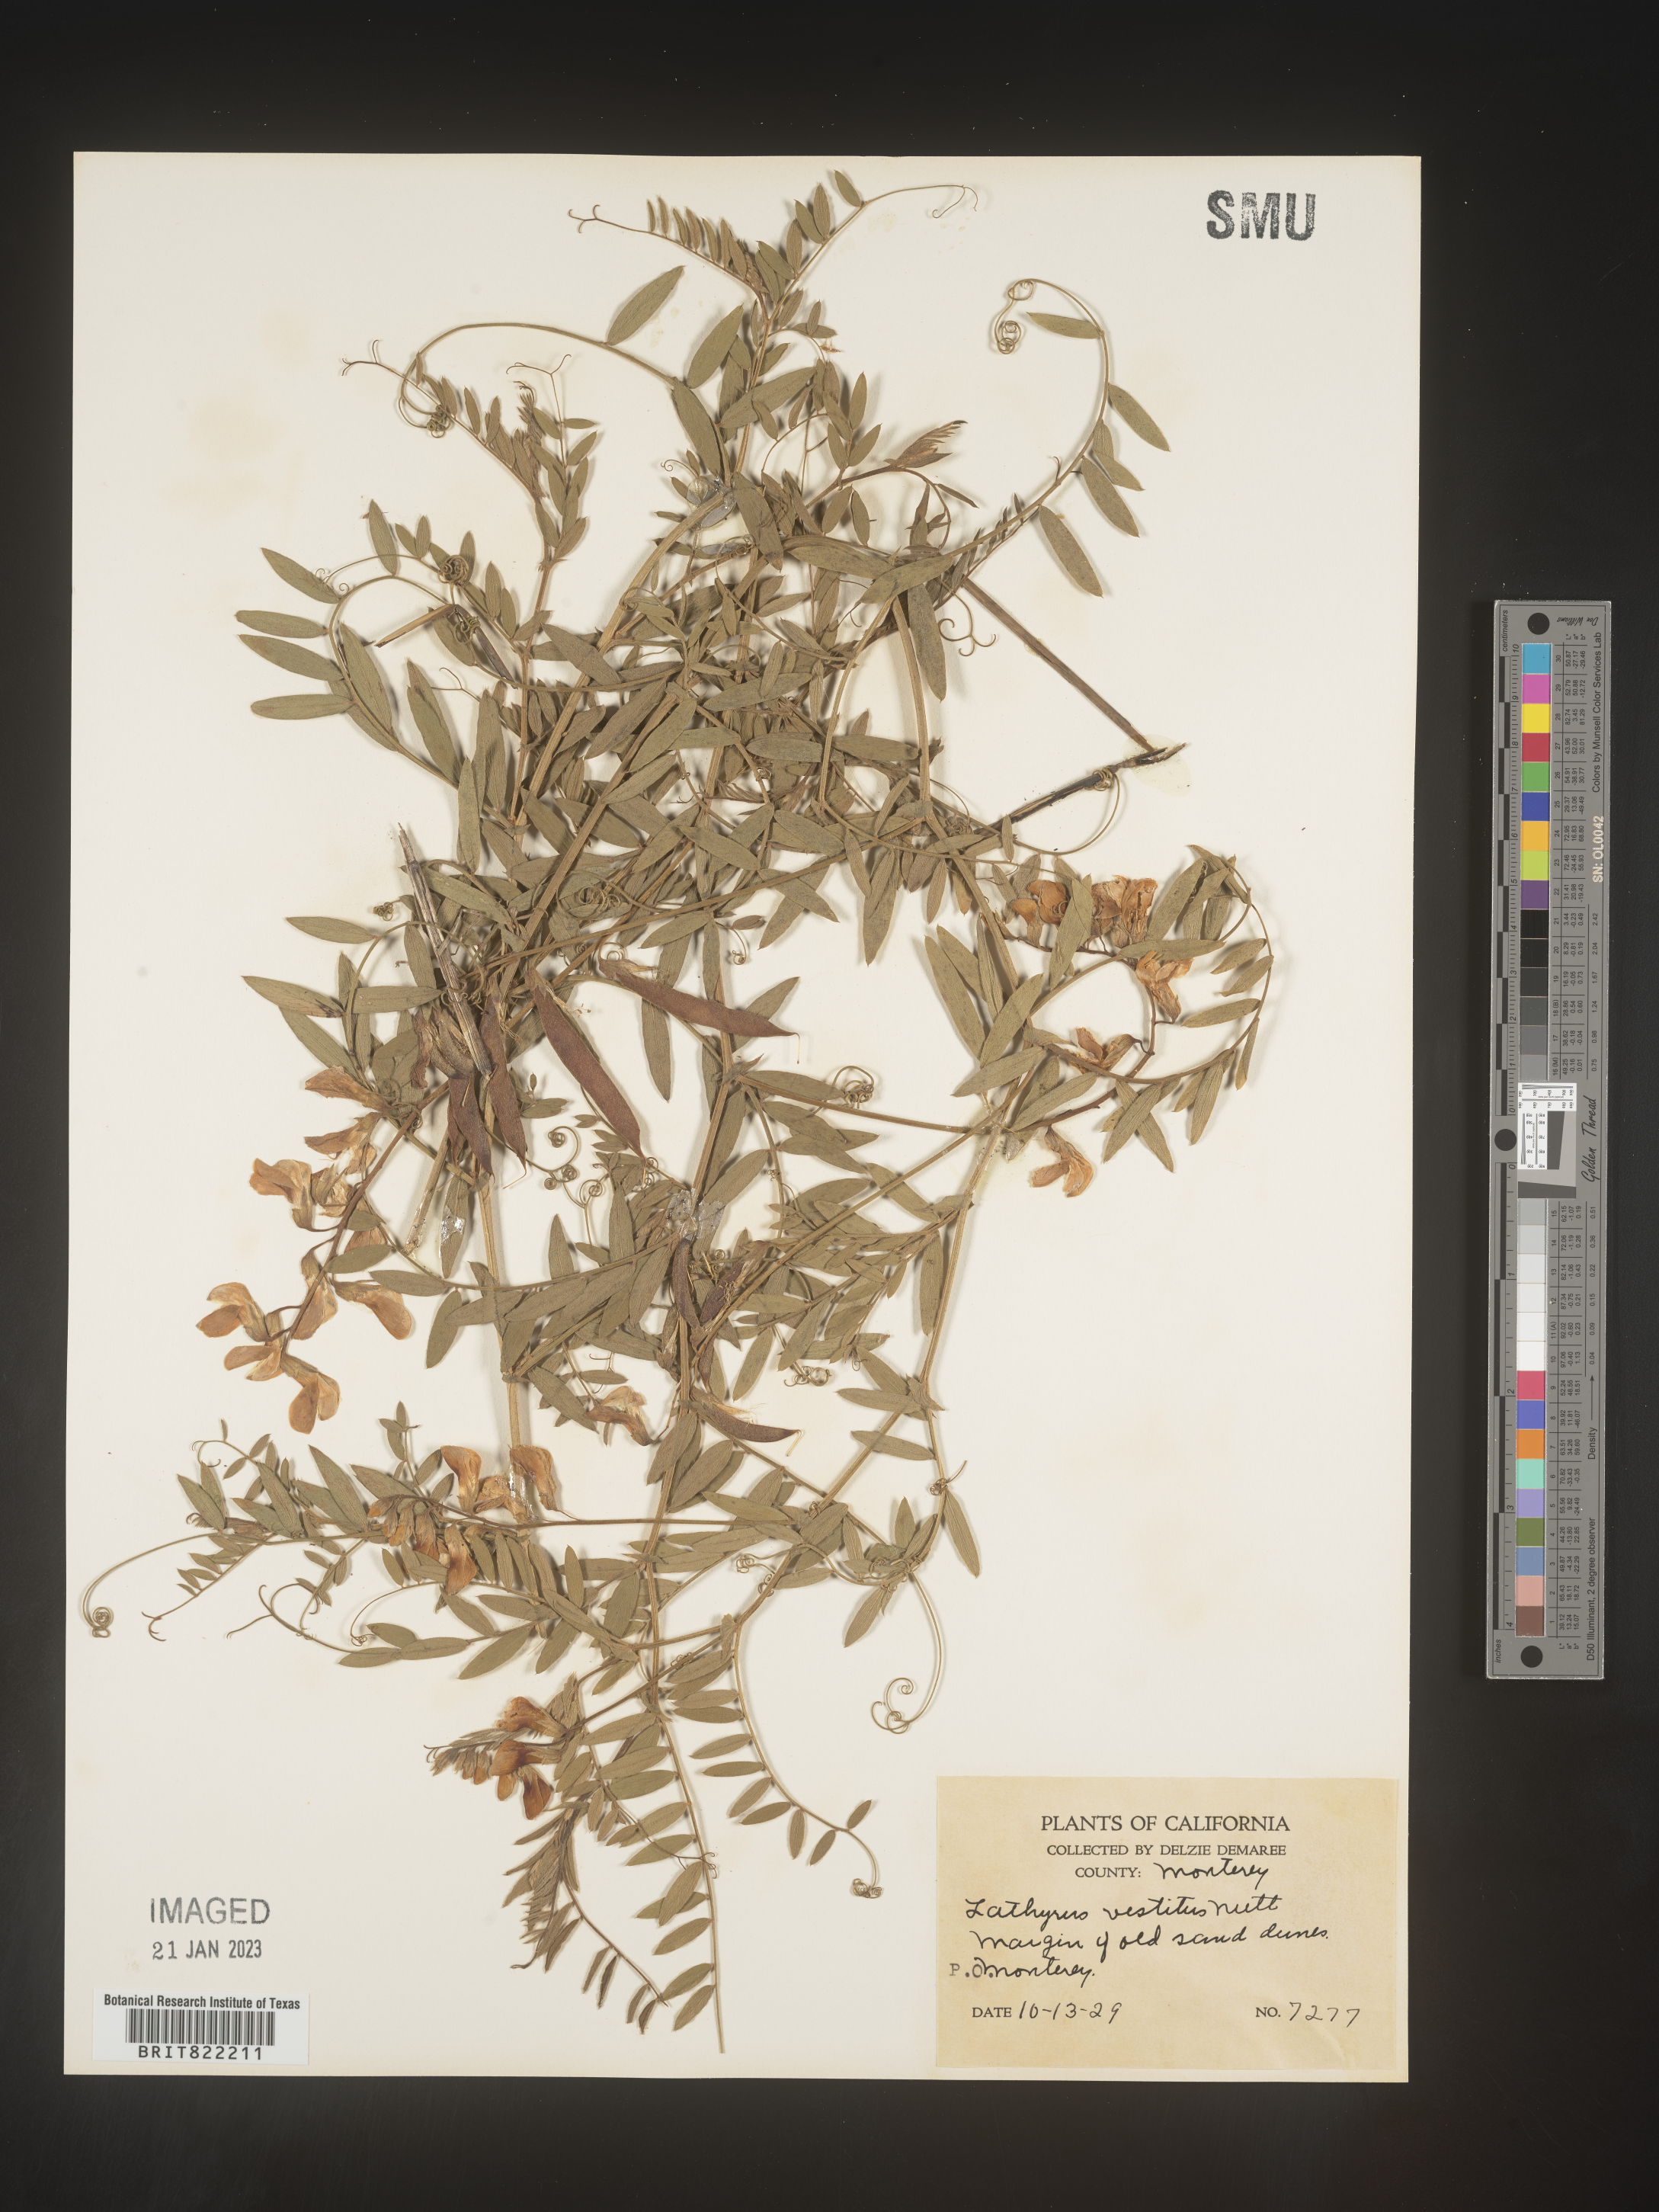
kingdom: Plantae
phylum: Tracheophyta
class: Magnoliopsida
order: Fabales
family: Fabaceae
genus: Lathyrus
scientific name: Lathyrus vestitus
